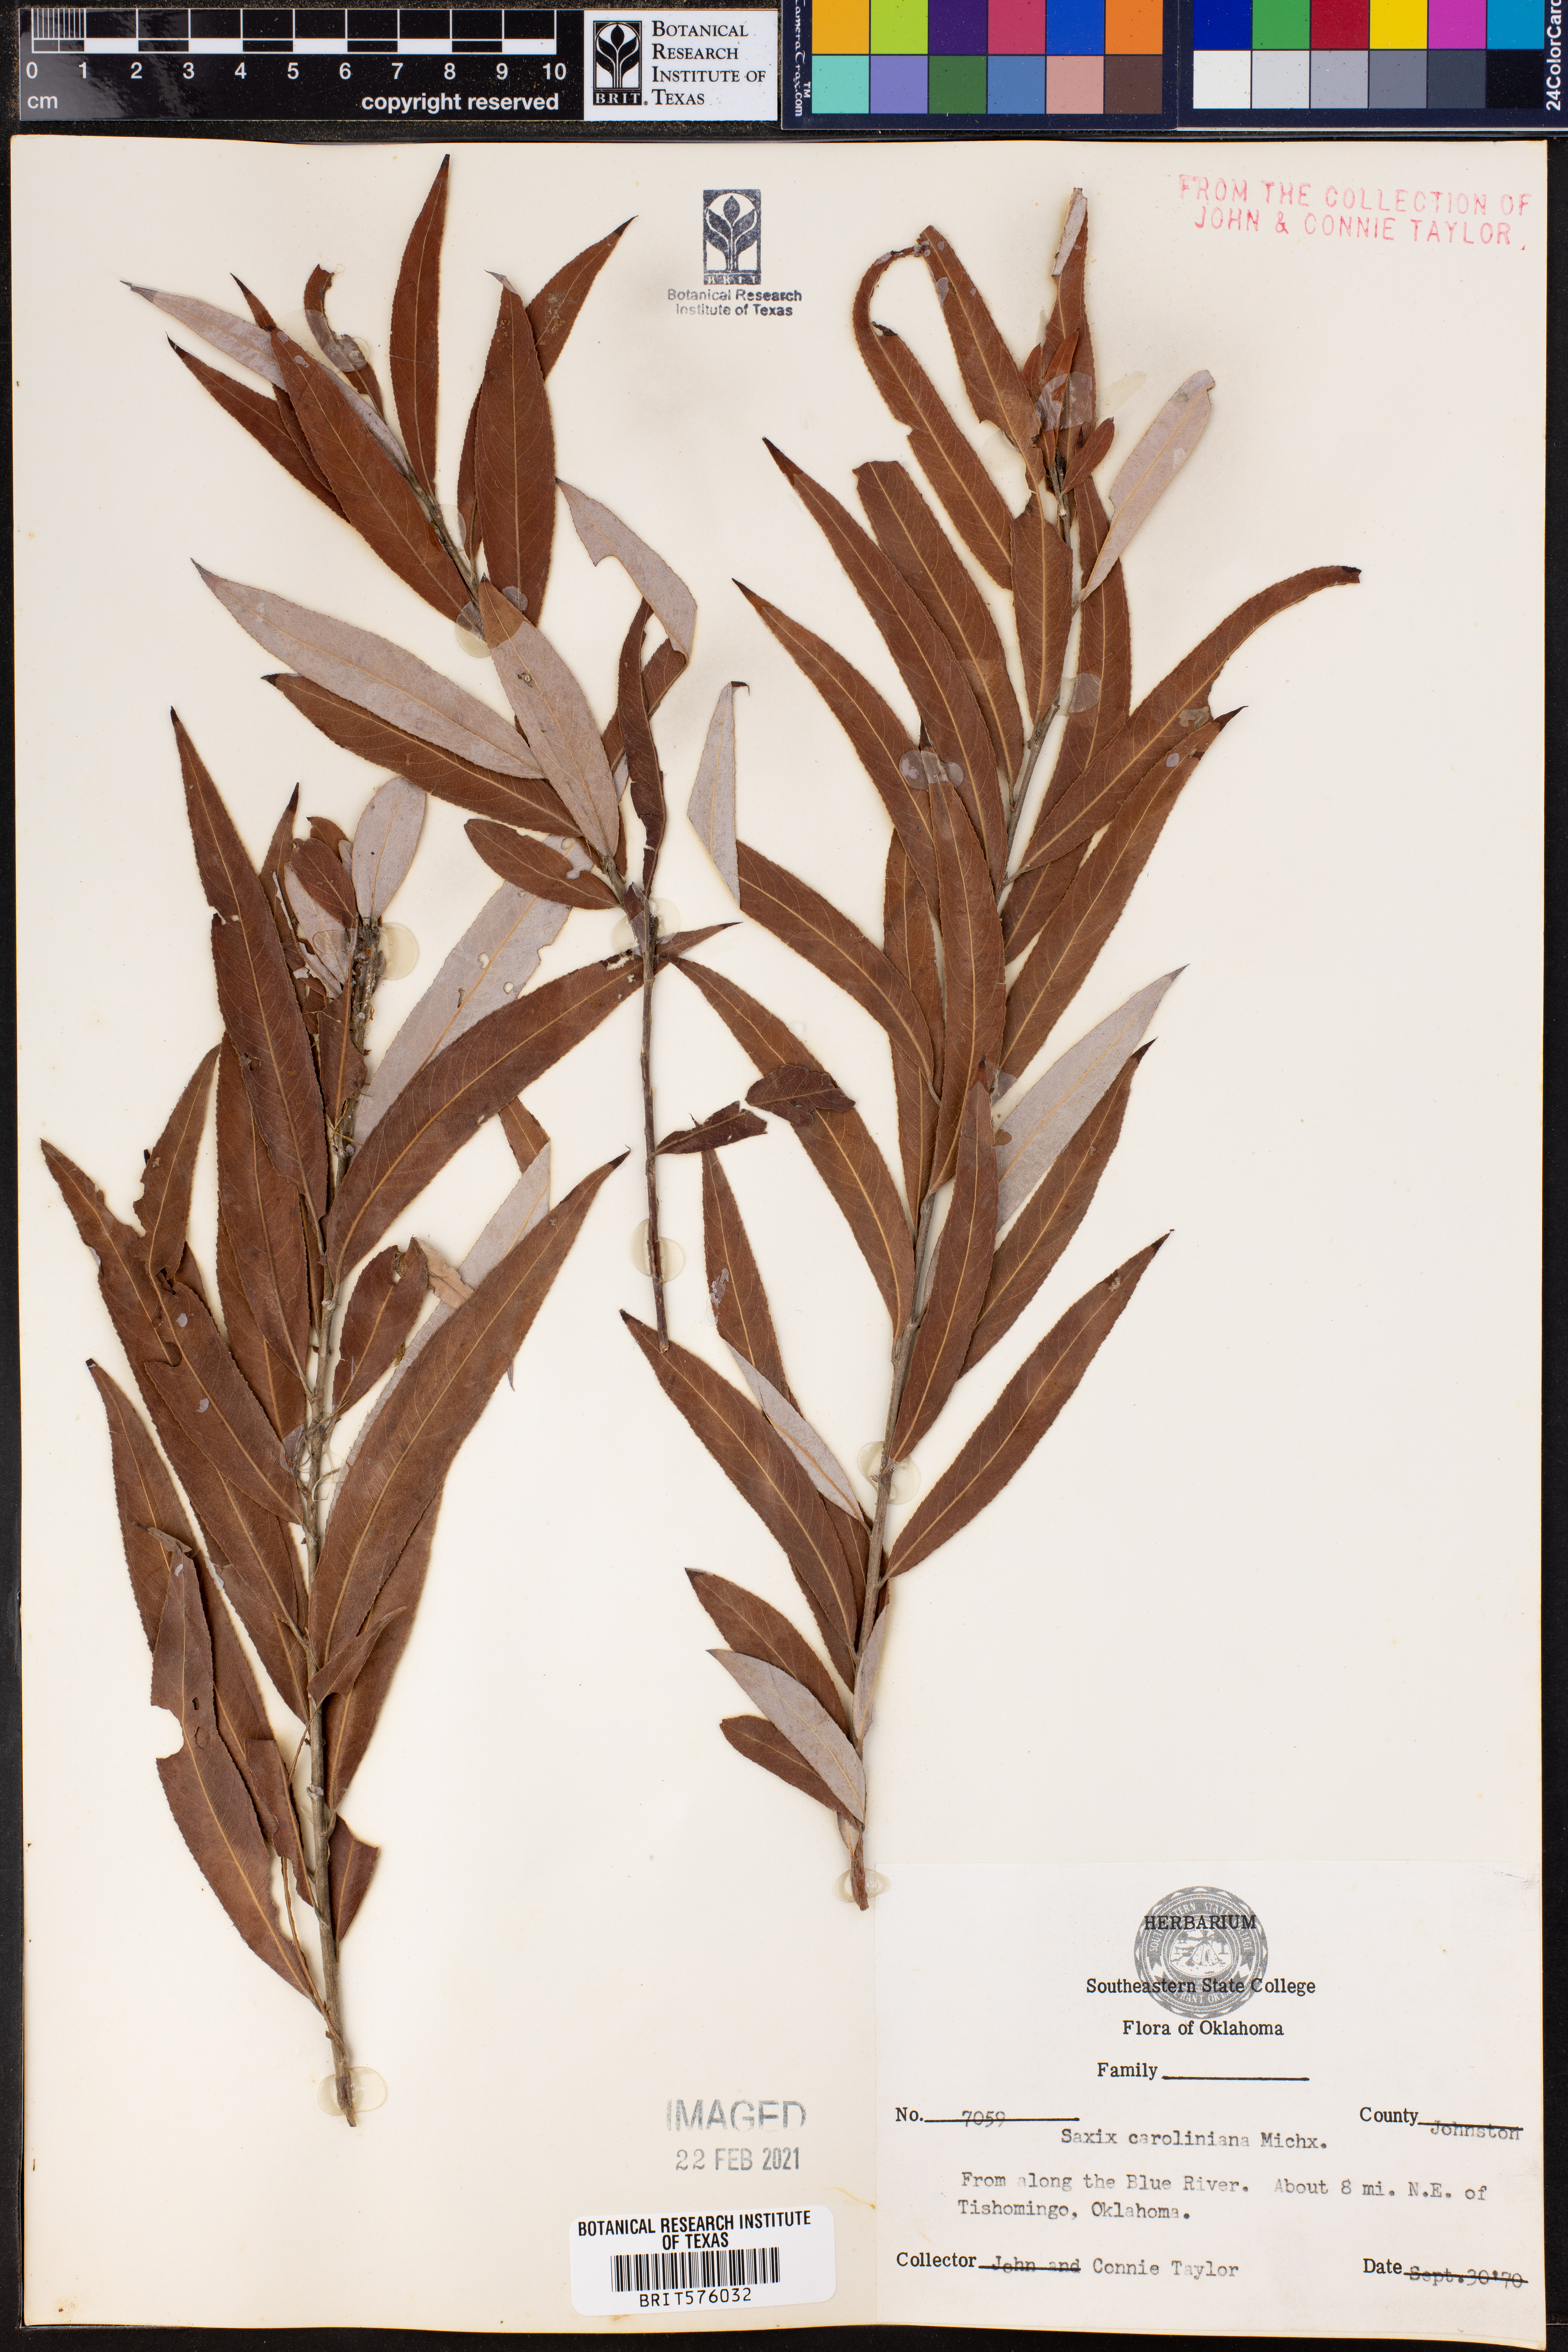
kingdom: Plantae
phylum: Tracheophyta
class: Magnoliopsida
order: Malpighiales
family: Salicaceae
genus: Salix
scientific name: Salix caroliniana
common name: Carolina willow
